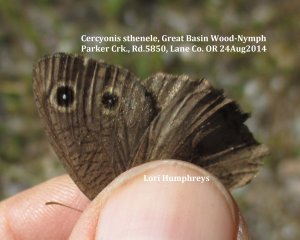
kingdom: Animalia
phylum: Arthropoda
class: Insecta
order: Lepidoptera
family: Nymphalidae
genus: Cercyonis
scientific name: Cercyonis sthenele
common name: Great Basin Wood-Nymph
